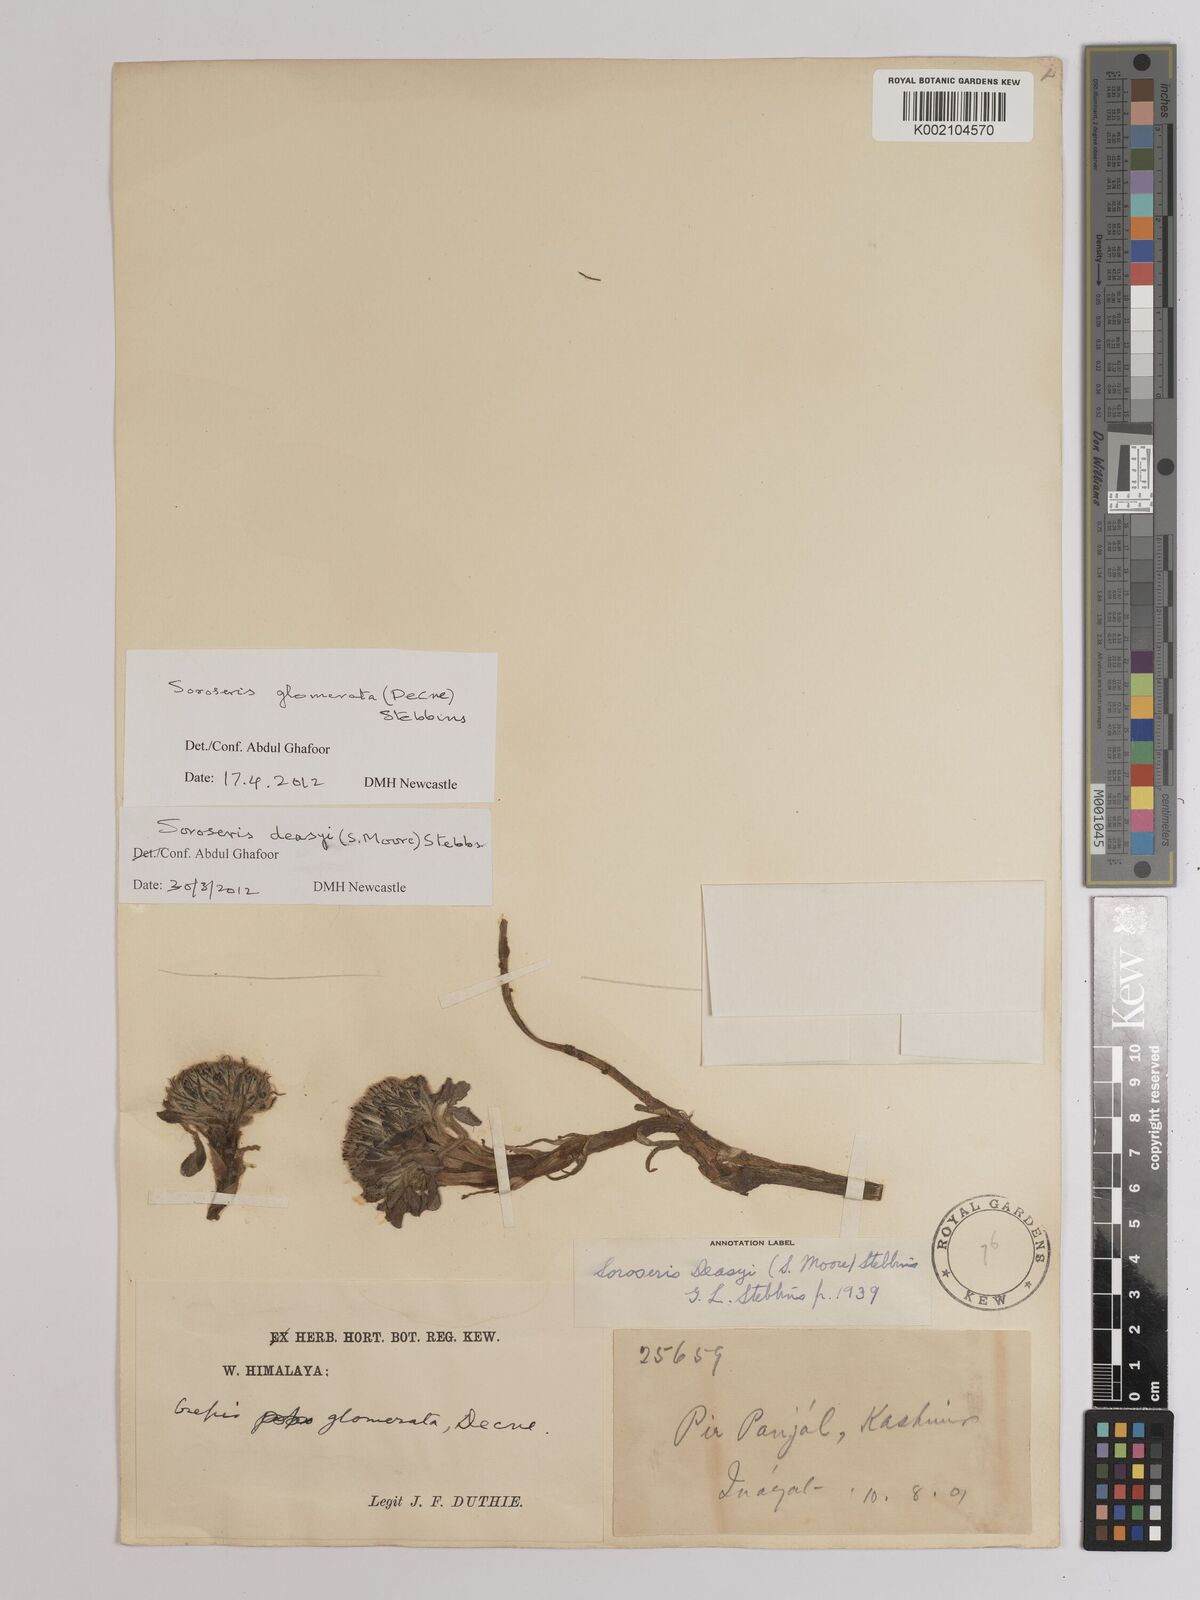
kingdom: Plantae
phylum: Tracheophyta
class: Magnoliopsida
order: Asterales
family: Asteraceae
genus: Soroseris
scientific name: Soroseris deasyi
